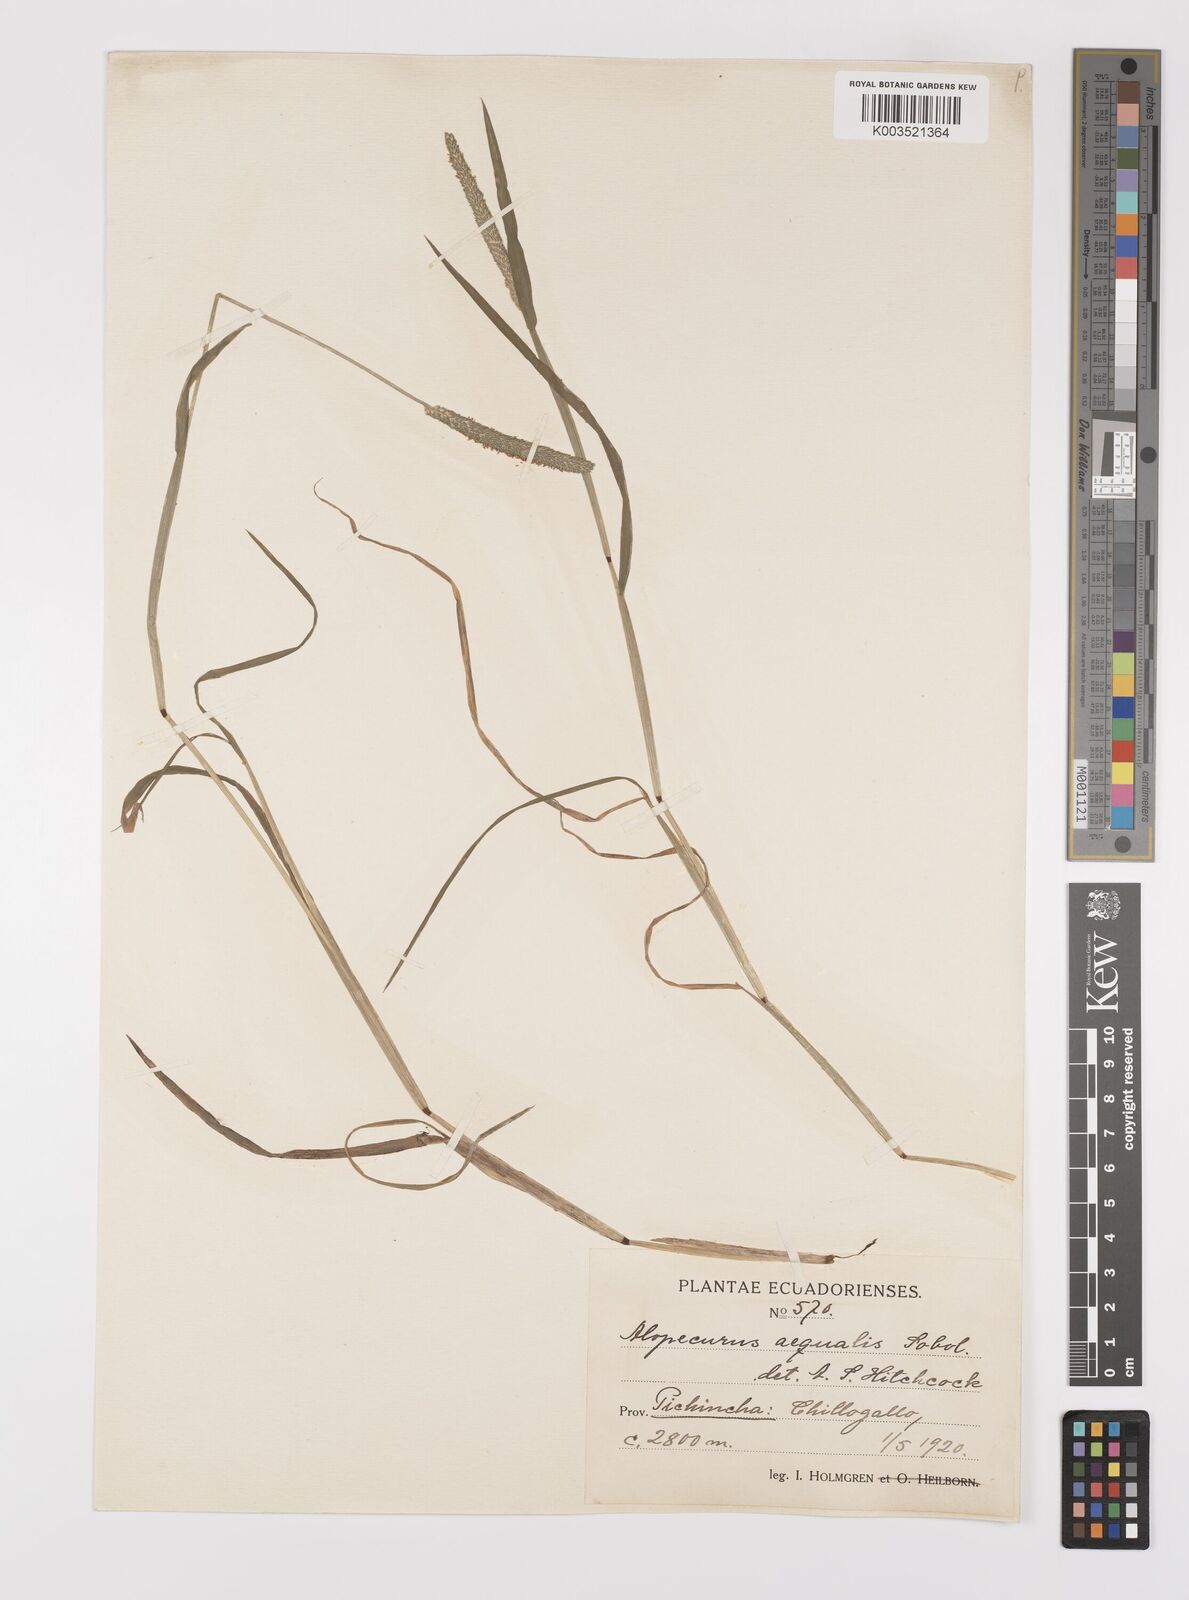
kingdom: Plantae
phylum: Tracheophyta
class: Liliopsida
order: Poales
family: Poaceae
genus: Alopecurus
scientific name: Alopecurus aequalis
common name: Orange foxtail
